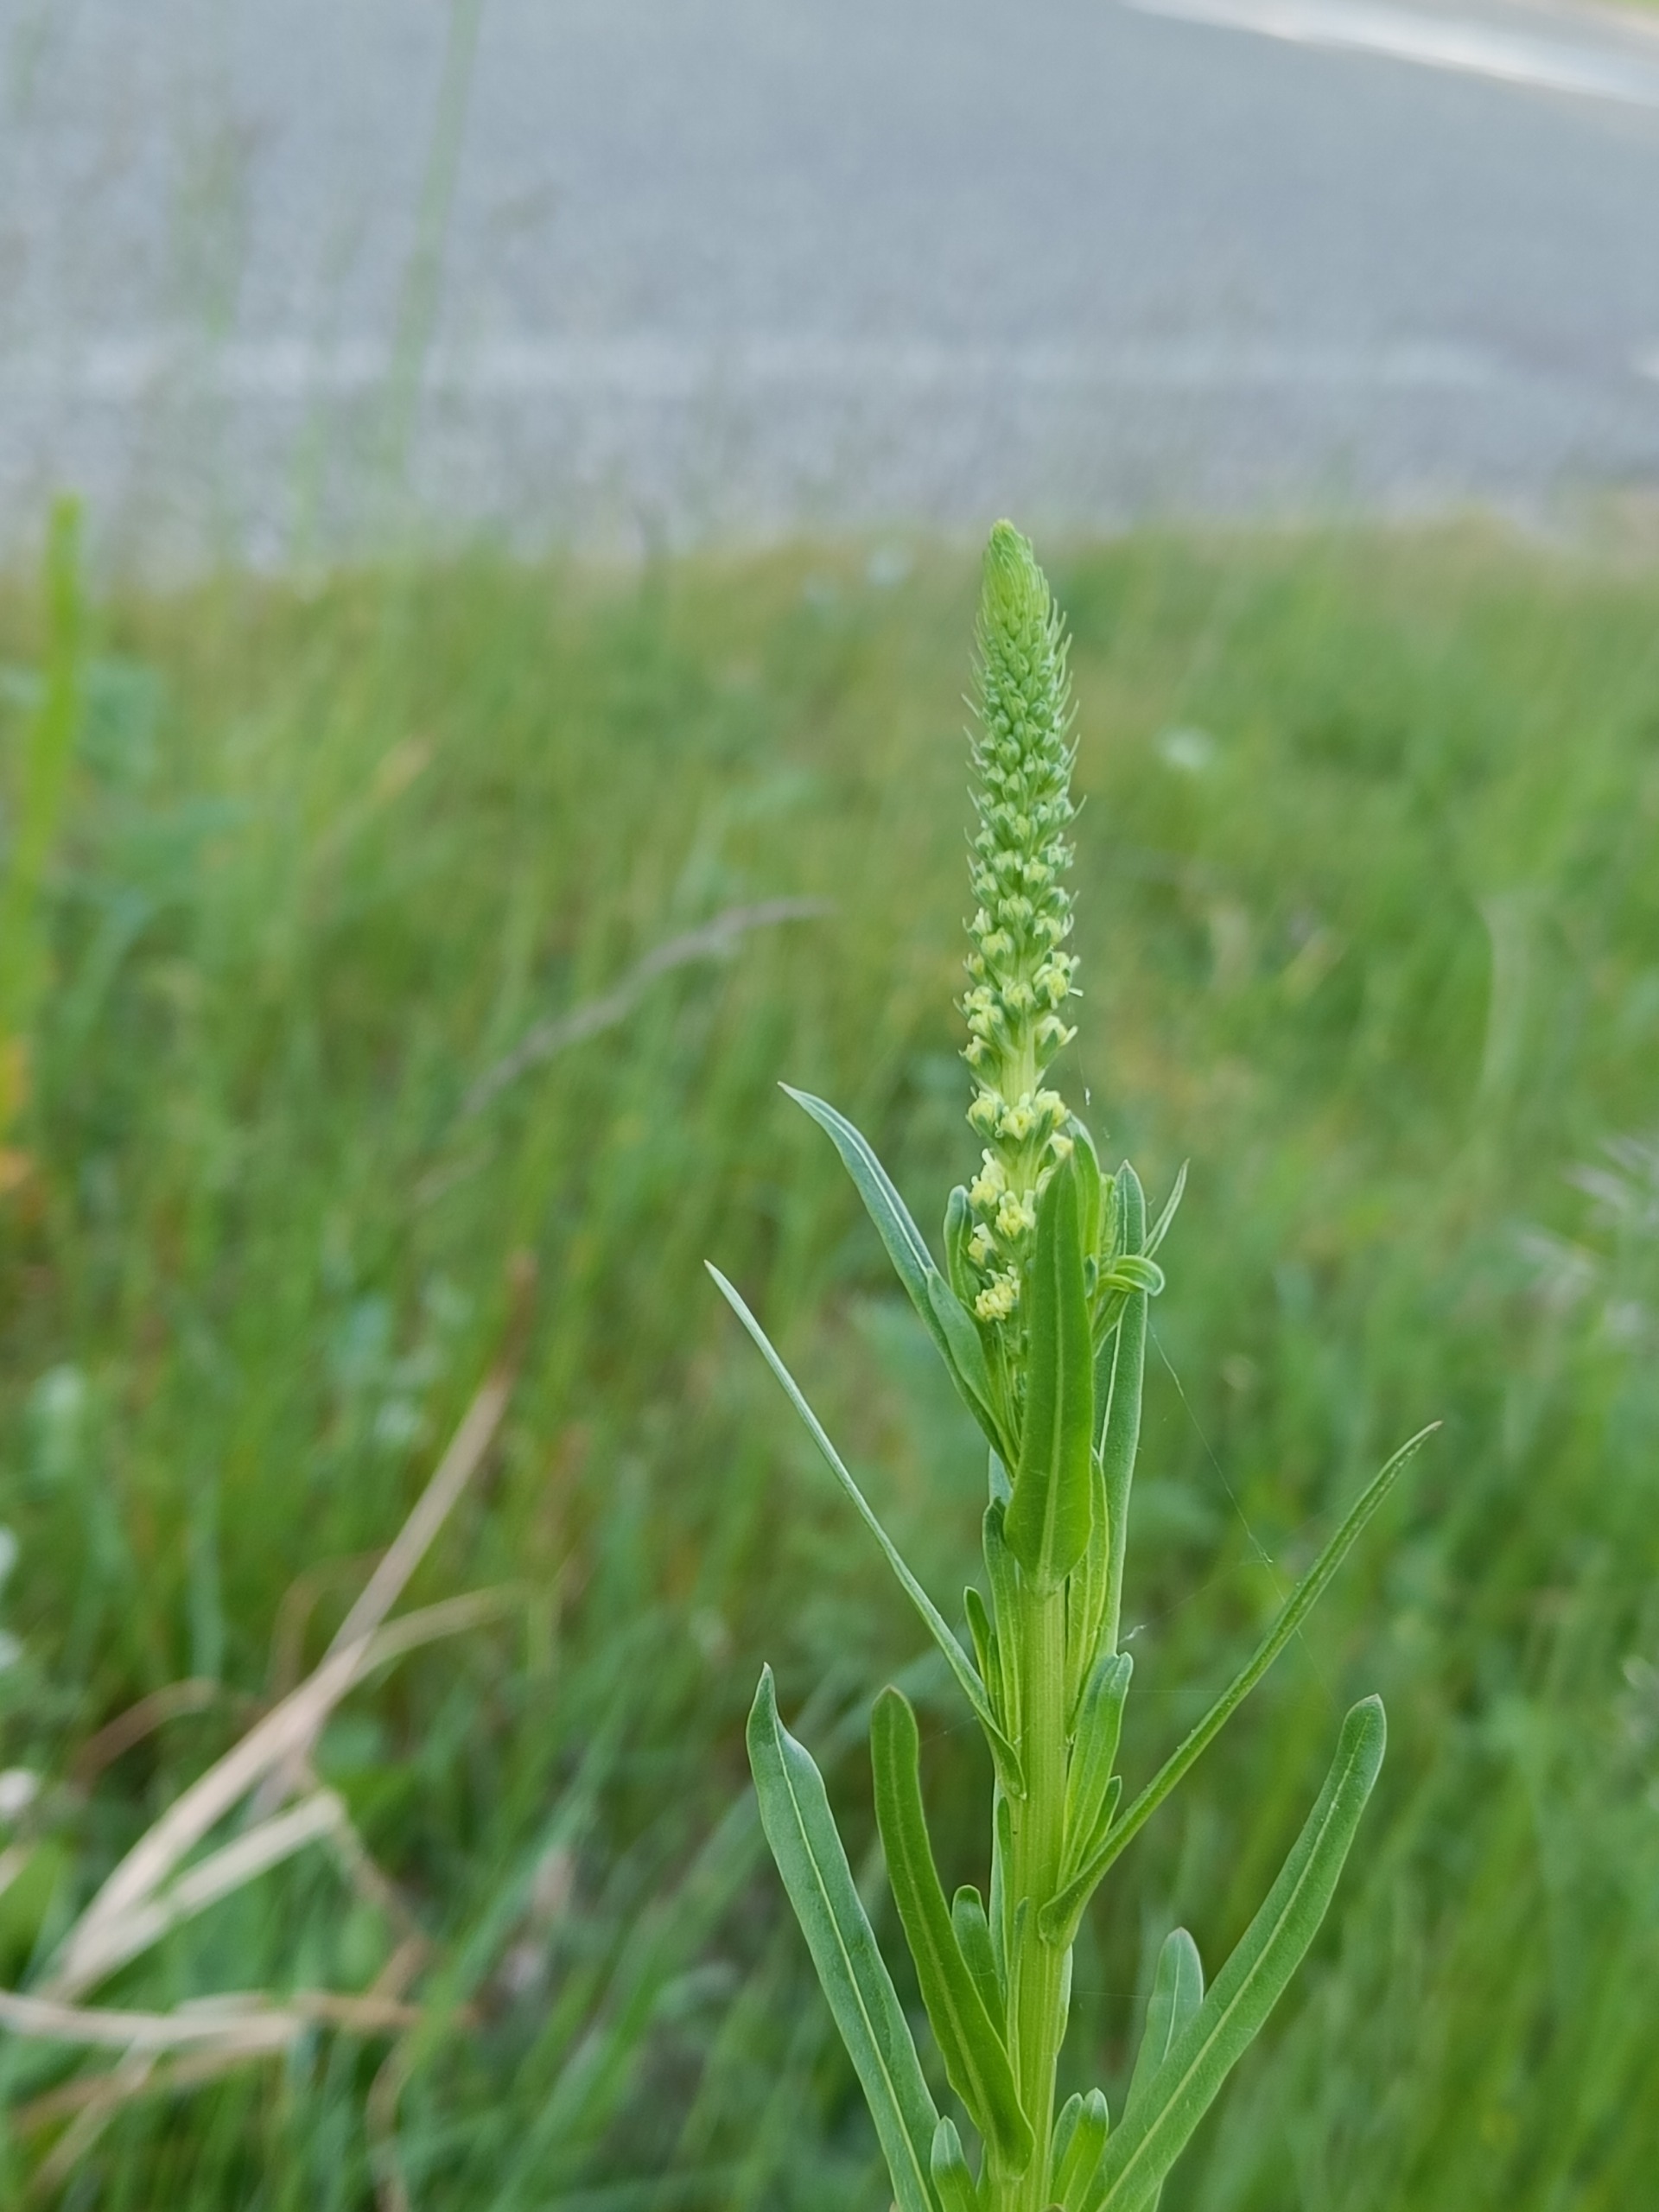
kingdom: Plantae
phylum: Tracheophyta
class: Magnoliopsida
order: Brassicales
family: Resedaceae
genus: Reseda
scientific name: Reseda luteola
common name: Farve-reseda
